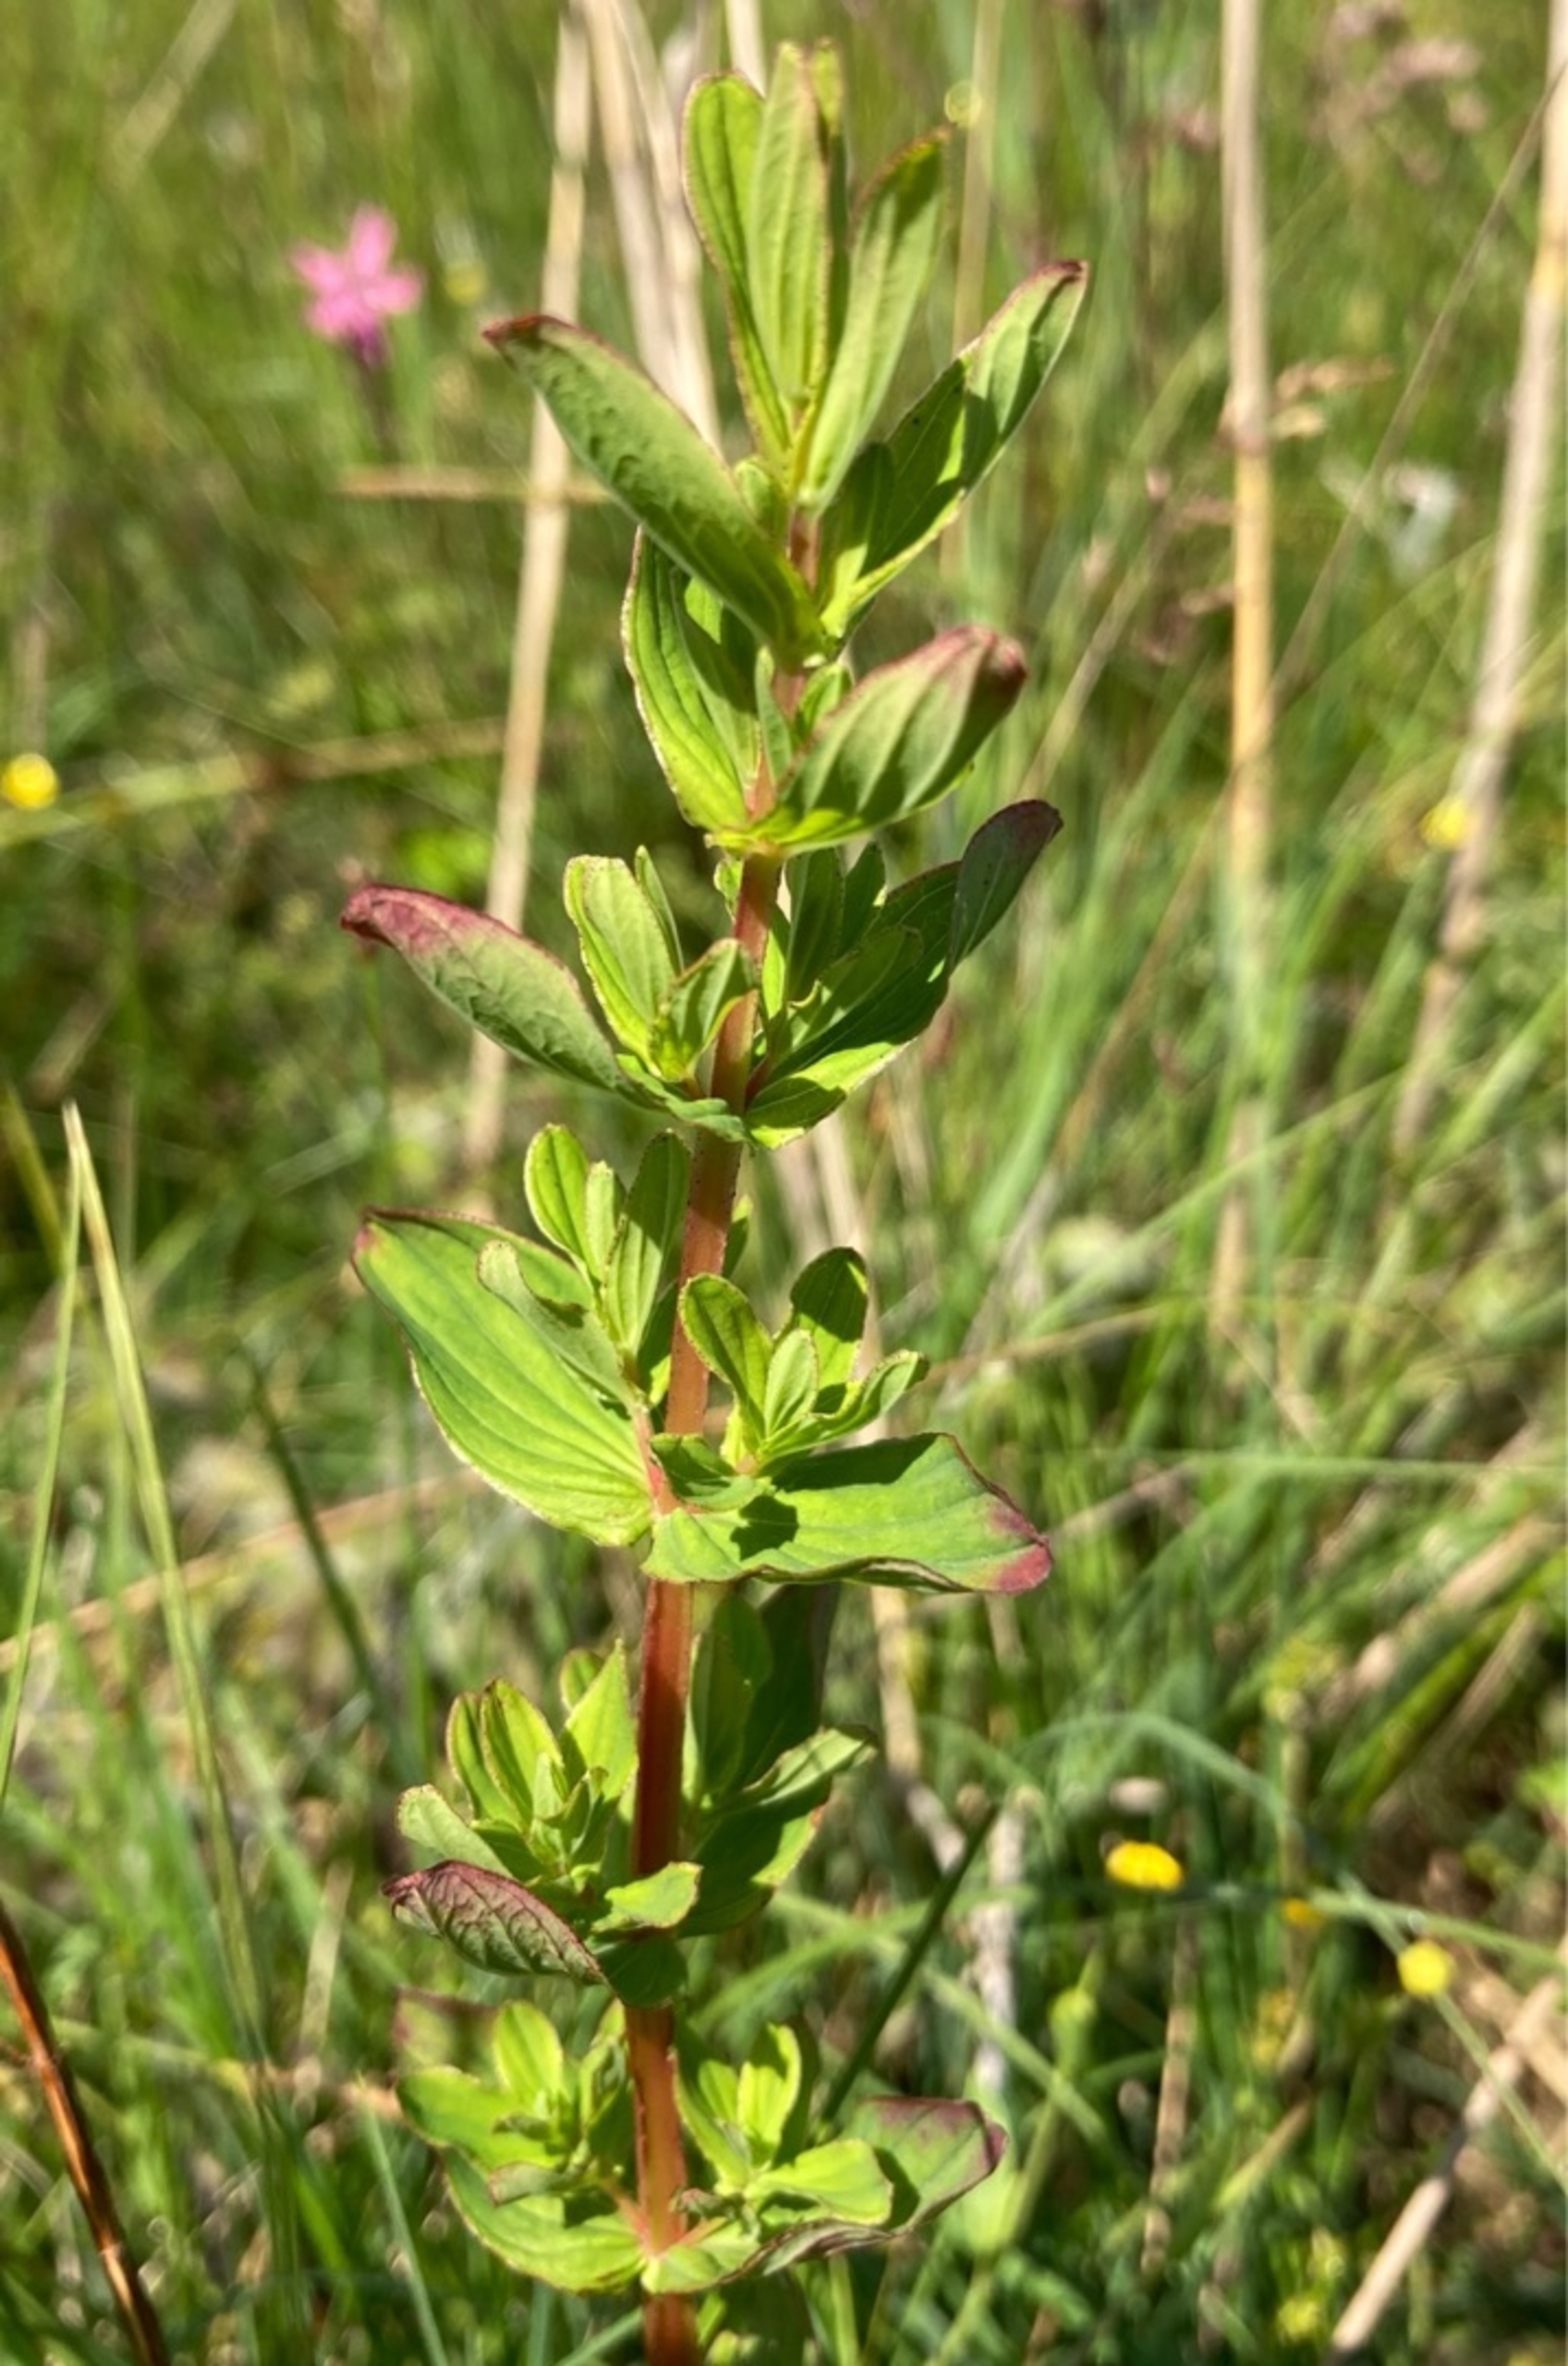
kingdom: Plantae
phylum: Tracheophyta
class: Magnoliopsida
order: Malpighiales
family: Hypericaceae
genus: Hypericum
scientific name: Hypericum tetrapterum
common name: Vinget perikon
